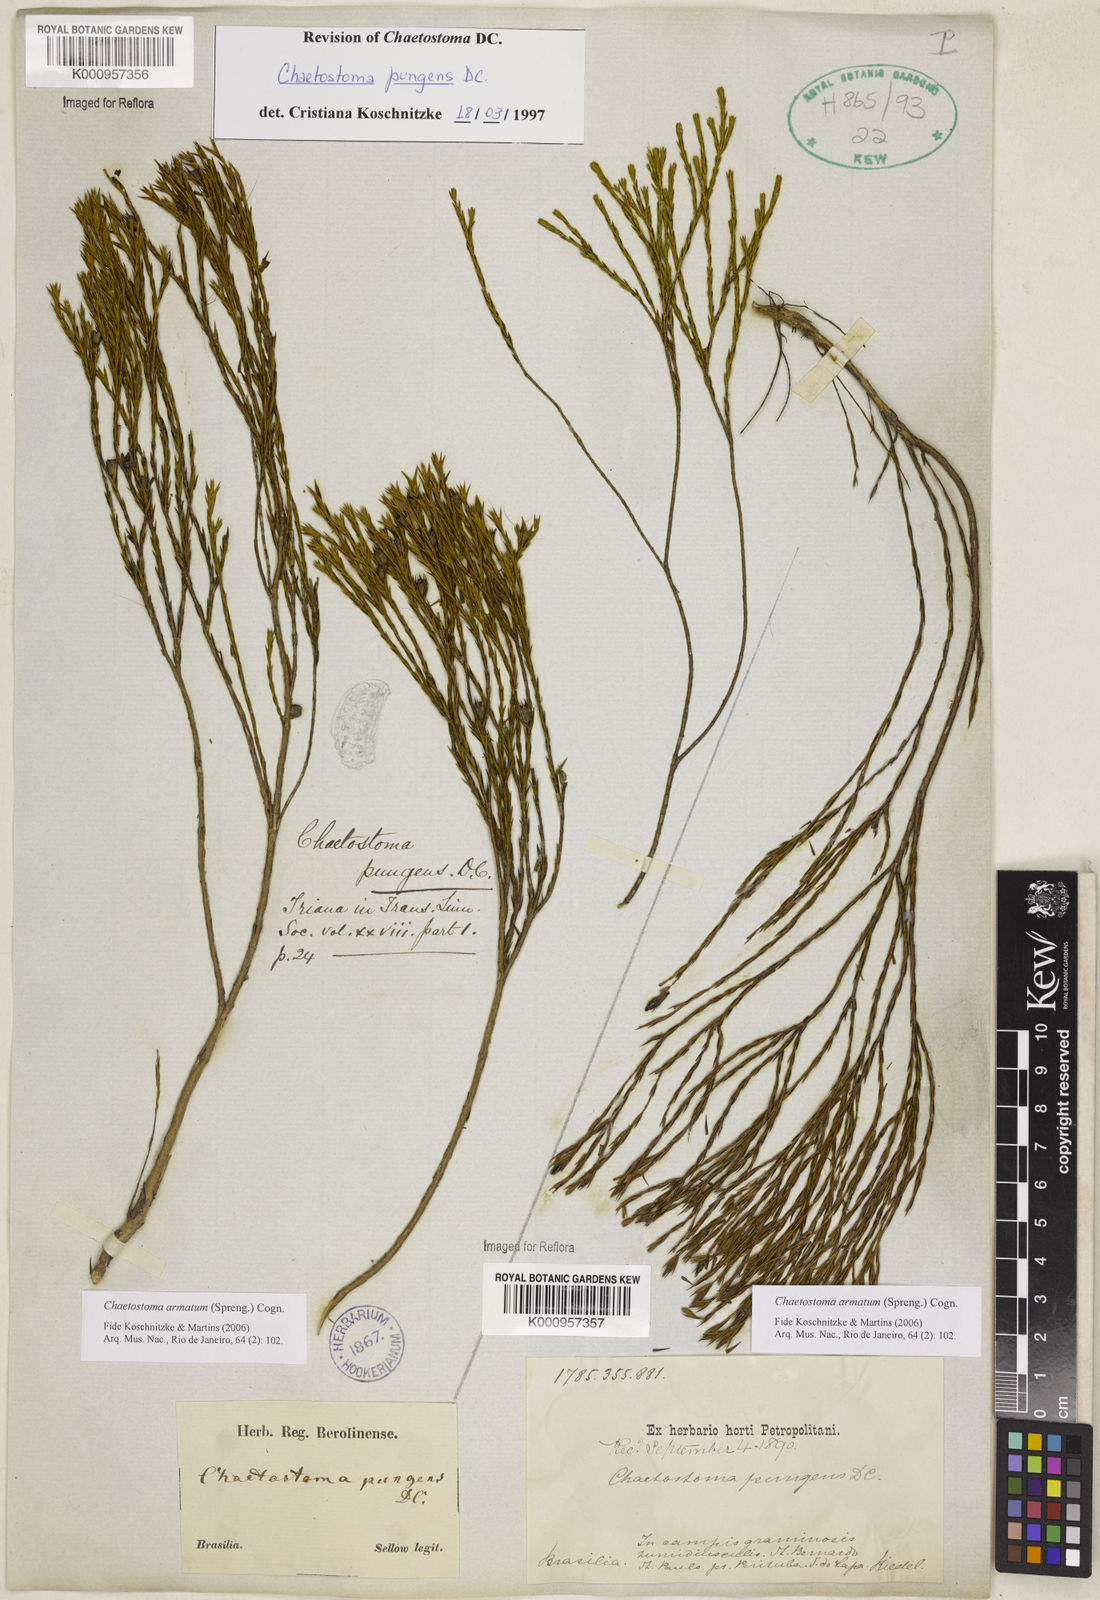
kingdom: Plantae
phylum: Tracheophyta
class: Magnoliopsida
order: Myrtales
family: Melastomataceae
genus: Microlicia
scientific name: Microlicia armata
